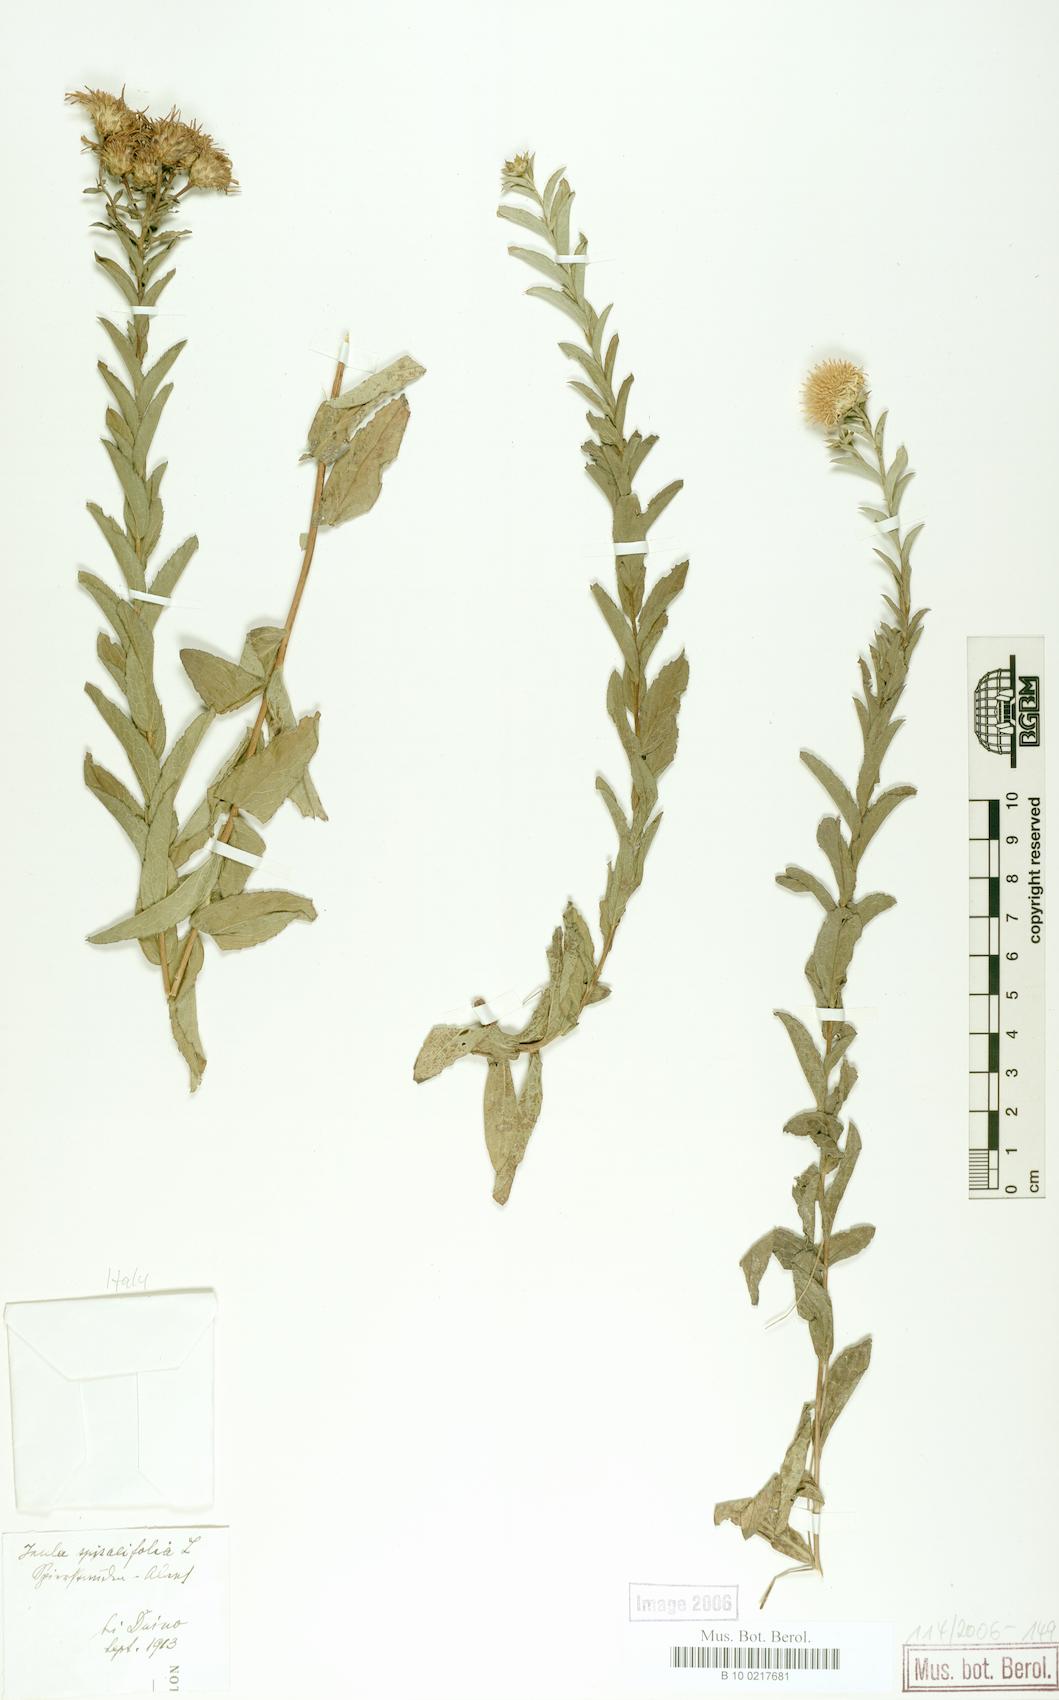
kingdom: Plantae
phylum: Tracheophyta
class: Magnoliopsida
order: Asterales
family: Asteraceae
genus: Pentanema
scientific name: Pentanema spiraeifolium
